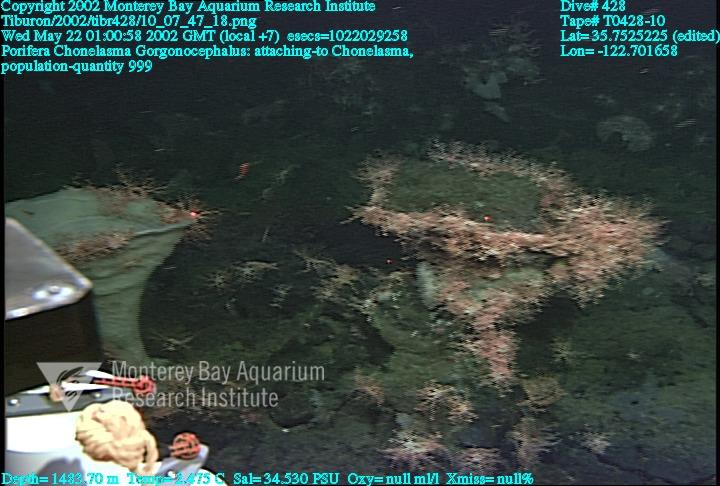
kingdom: Animalia
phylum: Porifera
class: Hexactinellida
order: Sceptrulophora
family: Euretidae
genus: Chonelasma
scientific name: Chonelasma
